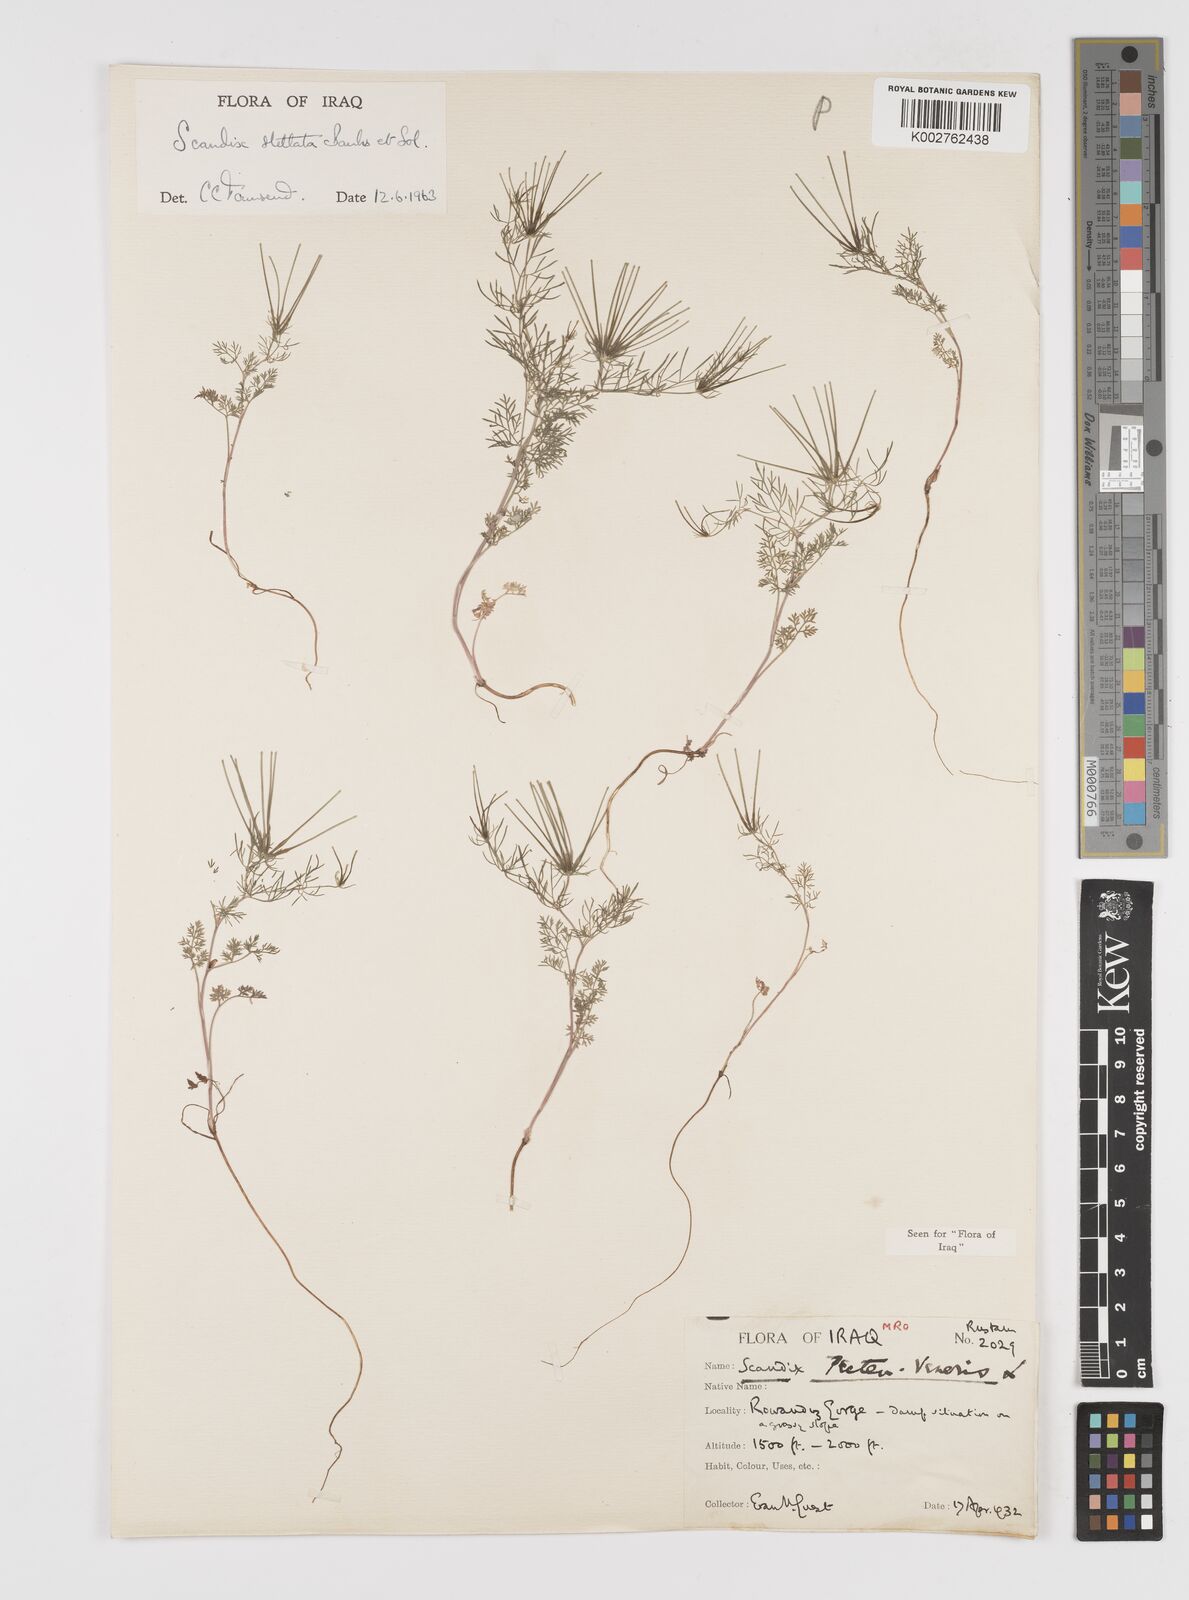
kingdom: Plantae
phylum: Tracheophyta
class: Magnoliopsida
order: Apiales
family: Apiaceae
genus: Scandix
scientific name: Scandix stellata
